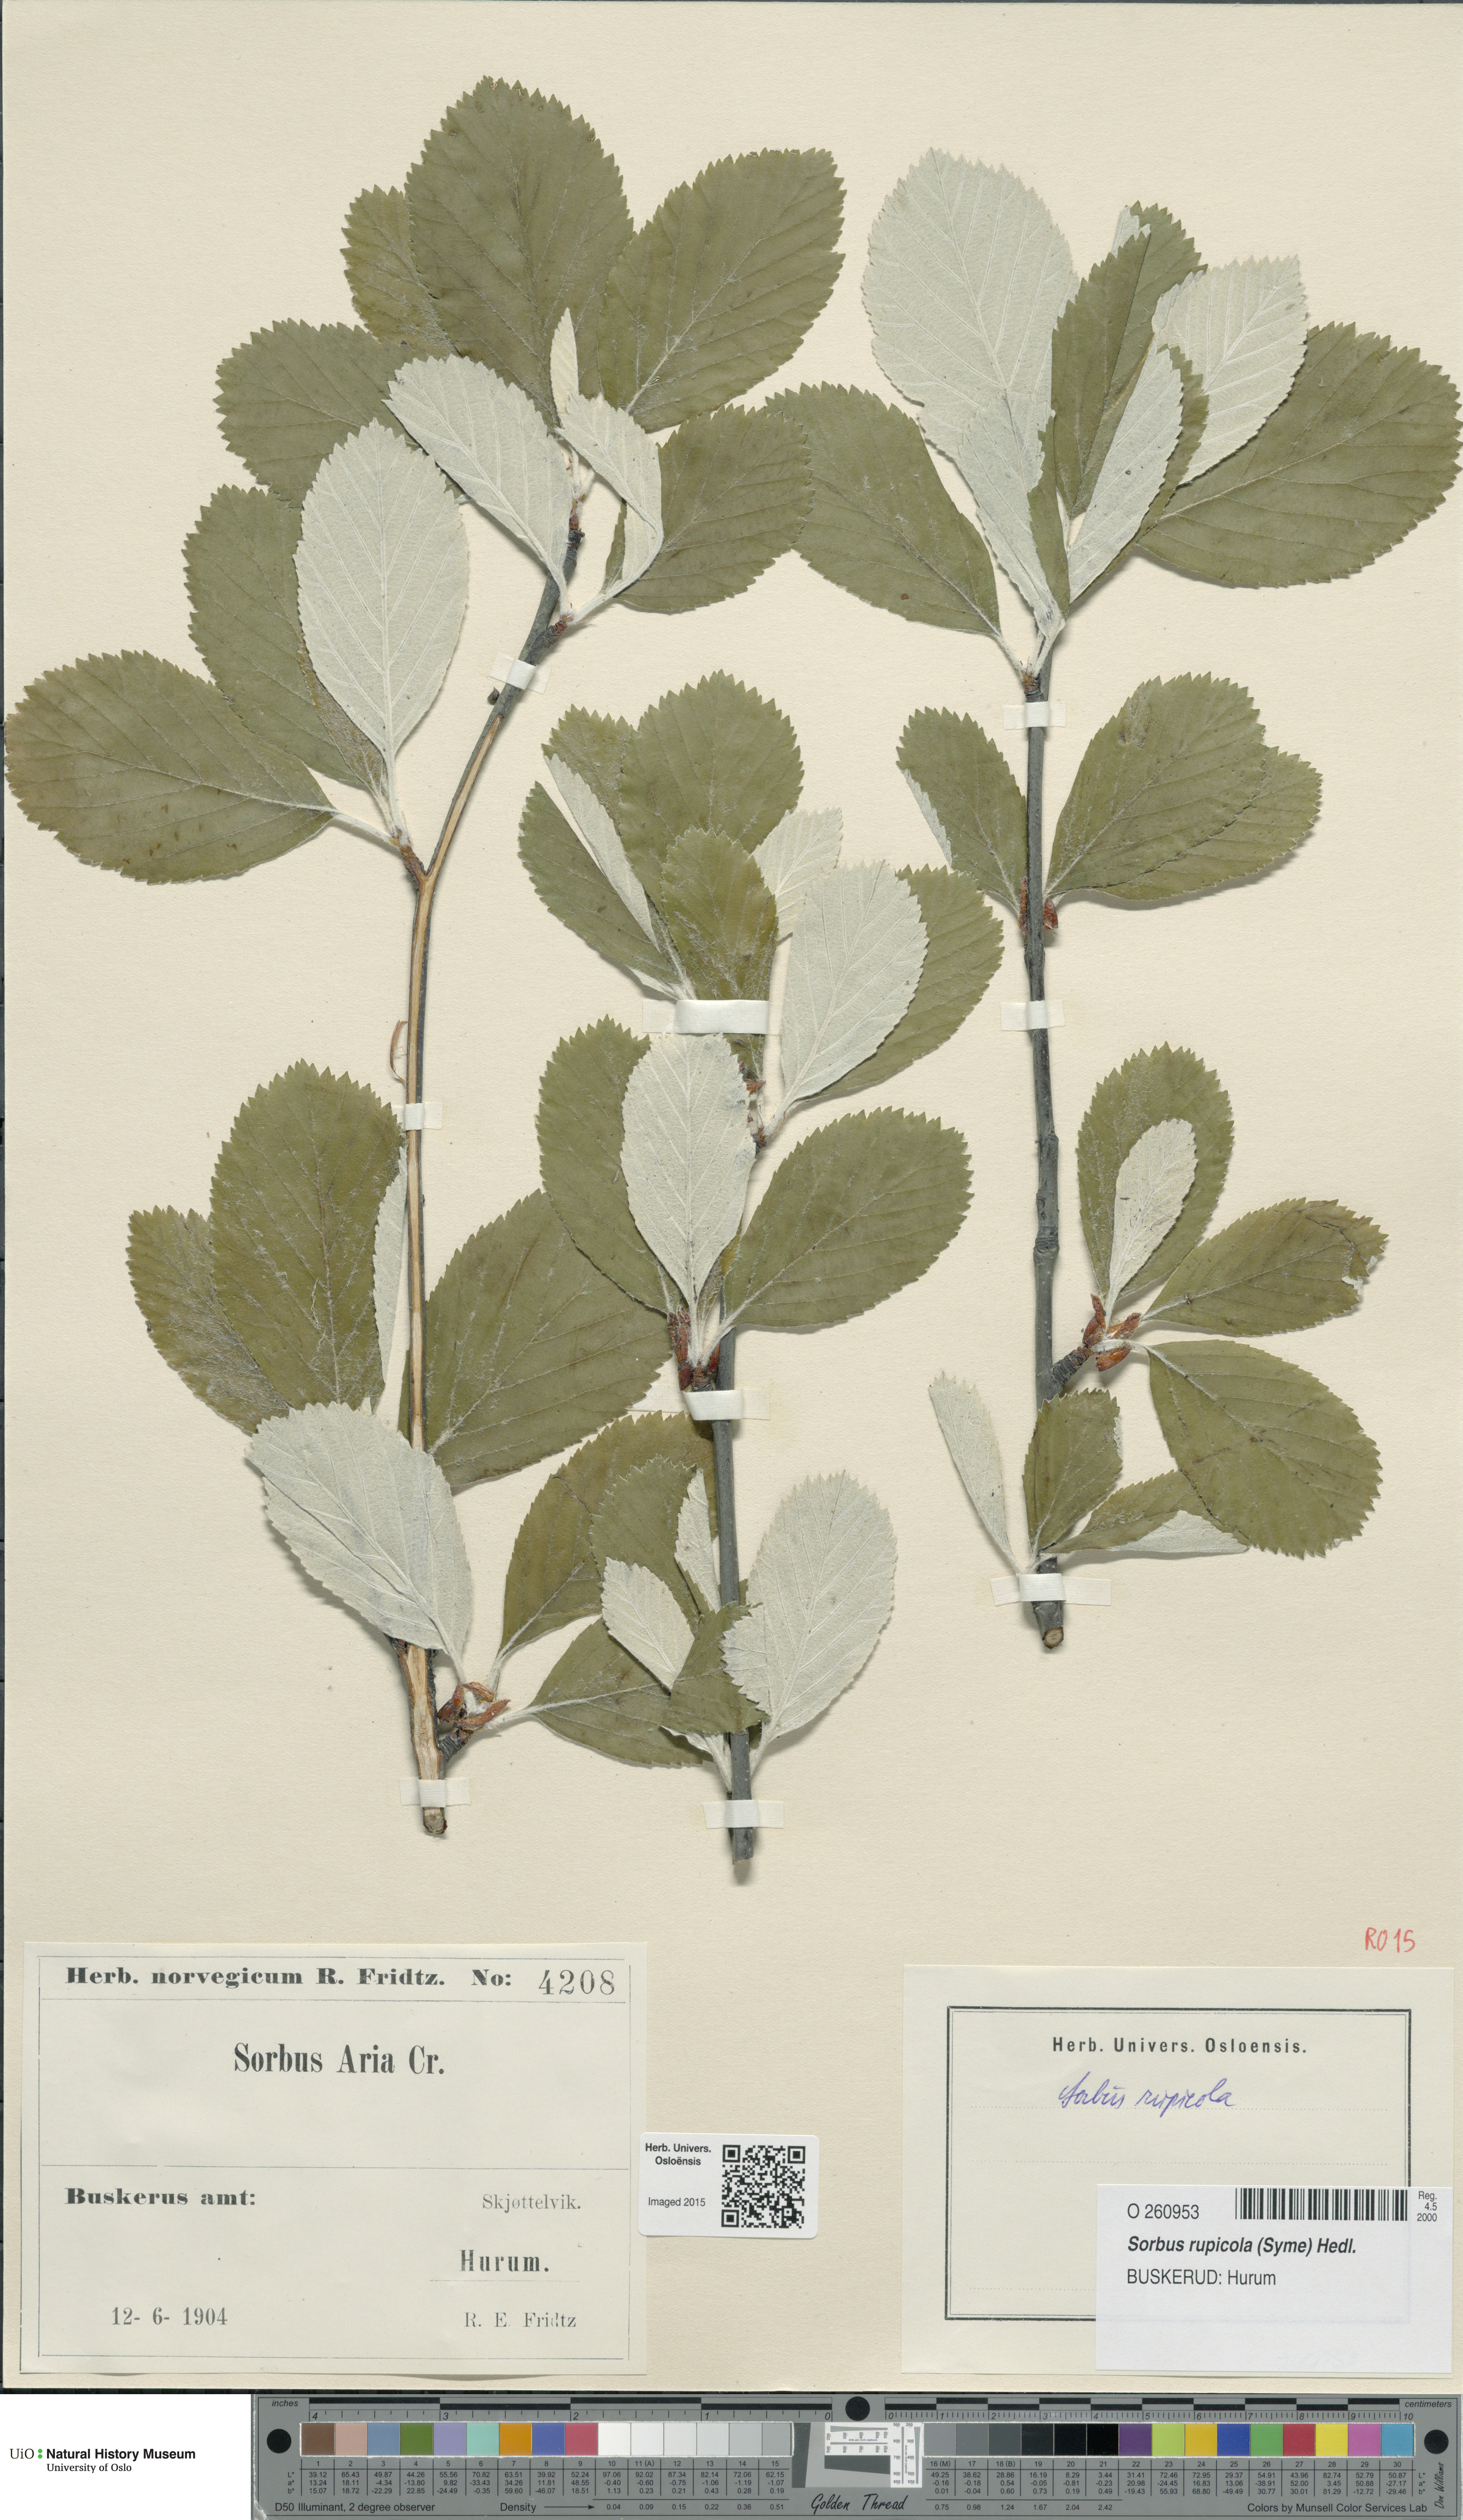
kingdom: Plantae
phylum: Tracheophyta
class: Magnoliopsida
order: Rosales
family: Rosaceae
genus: Aria
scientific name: Aria rupicola
